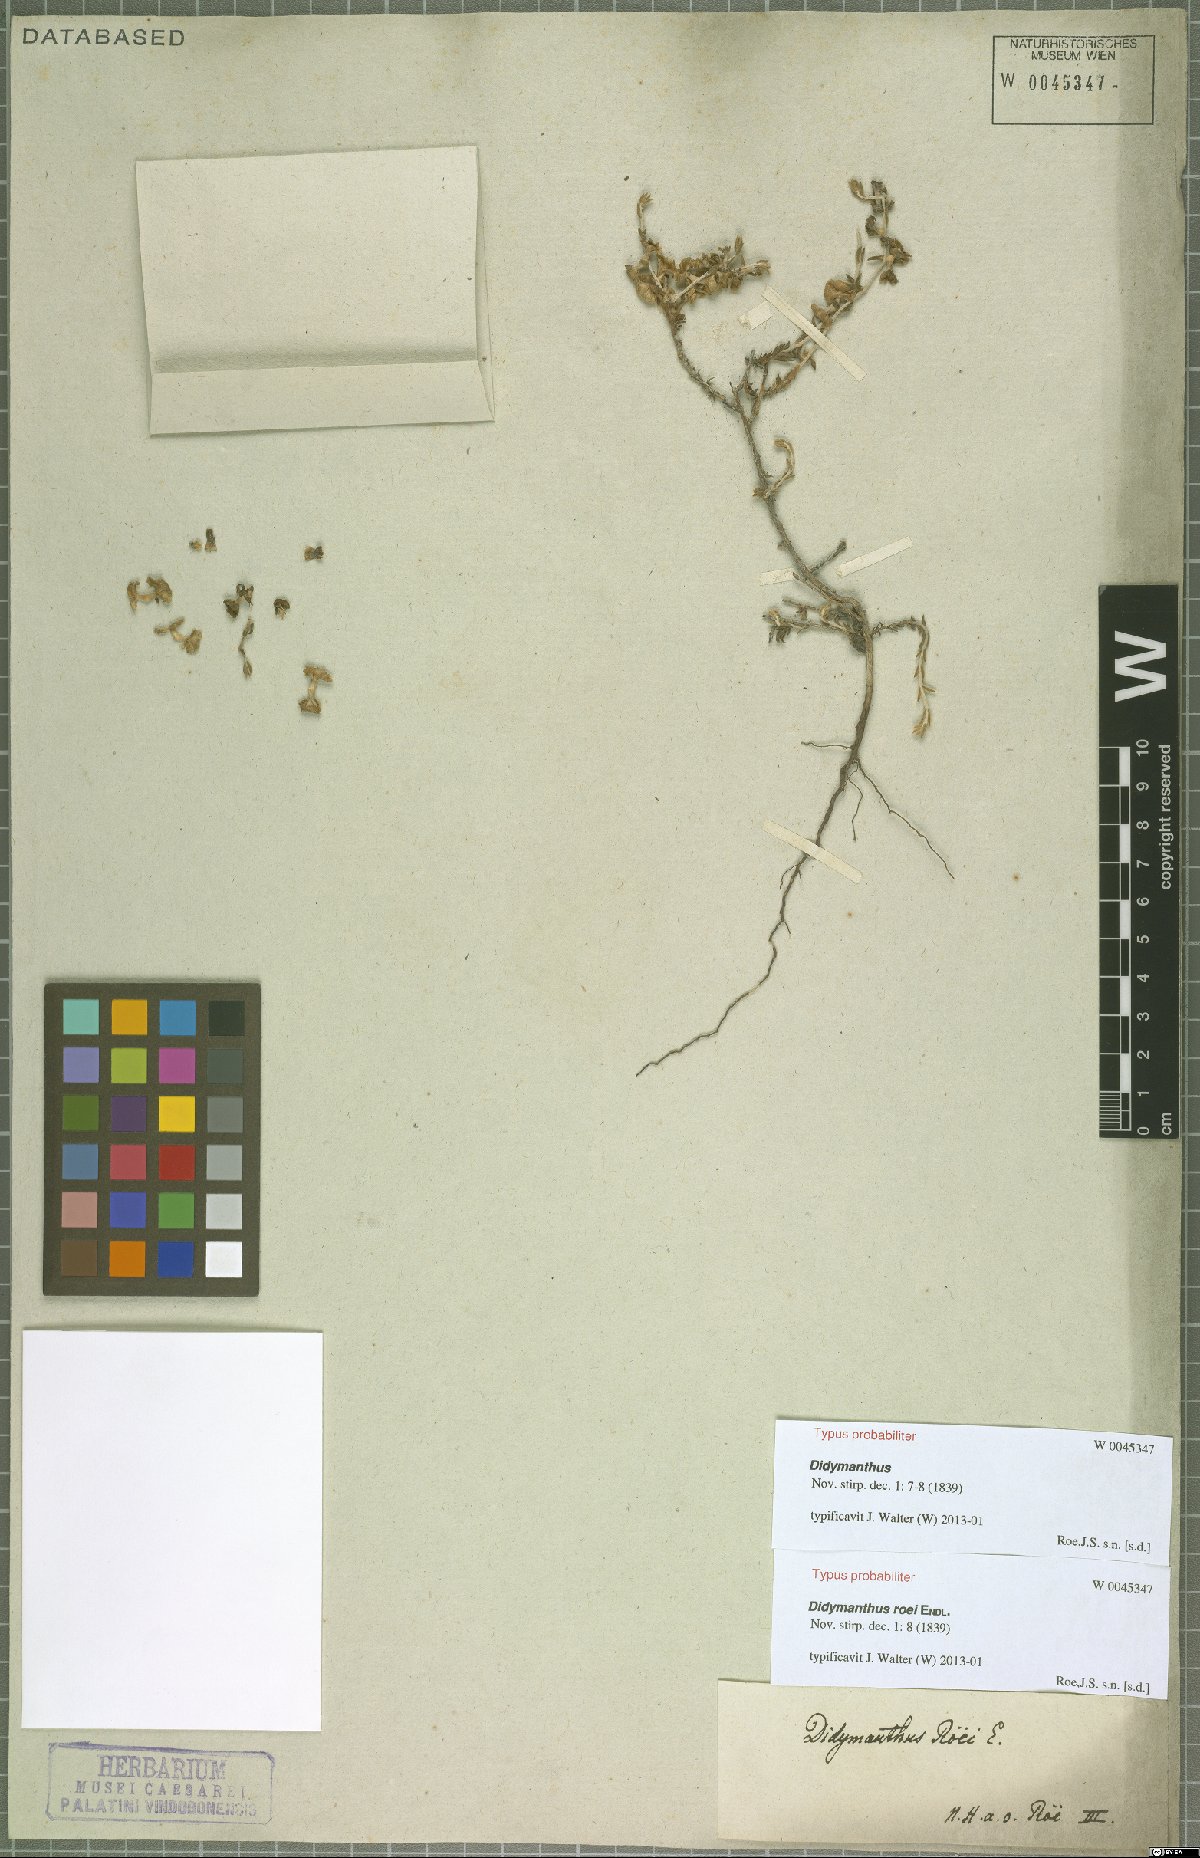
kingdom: Plantae
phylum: Tracheophyta
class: Magnoliopsida
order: Caryophyllales
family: Amaranthaceae
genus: Didymanthus
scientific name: Didymanthus roei
